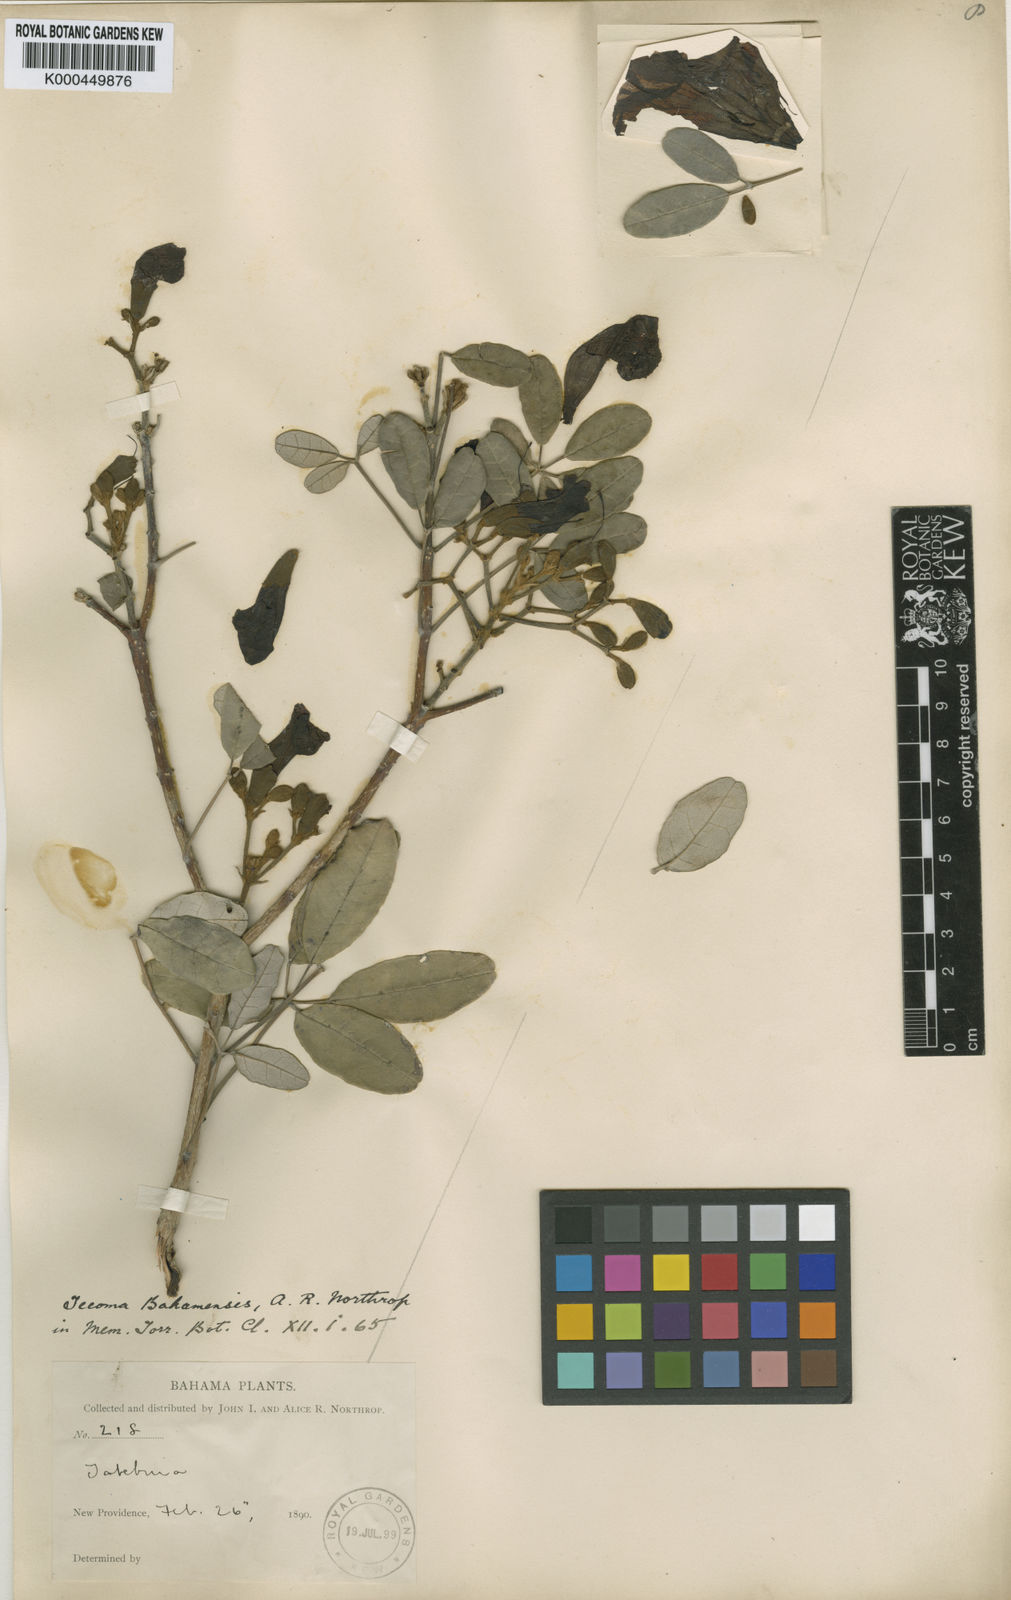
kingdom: Plantae
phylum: Tracheophyta
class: Magnoliopsida
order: Lamiales
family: Bignoniaceae
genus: Tabebuia
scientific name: Tabebuia bahamensis
